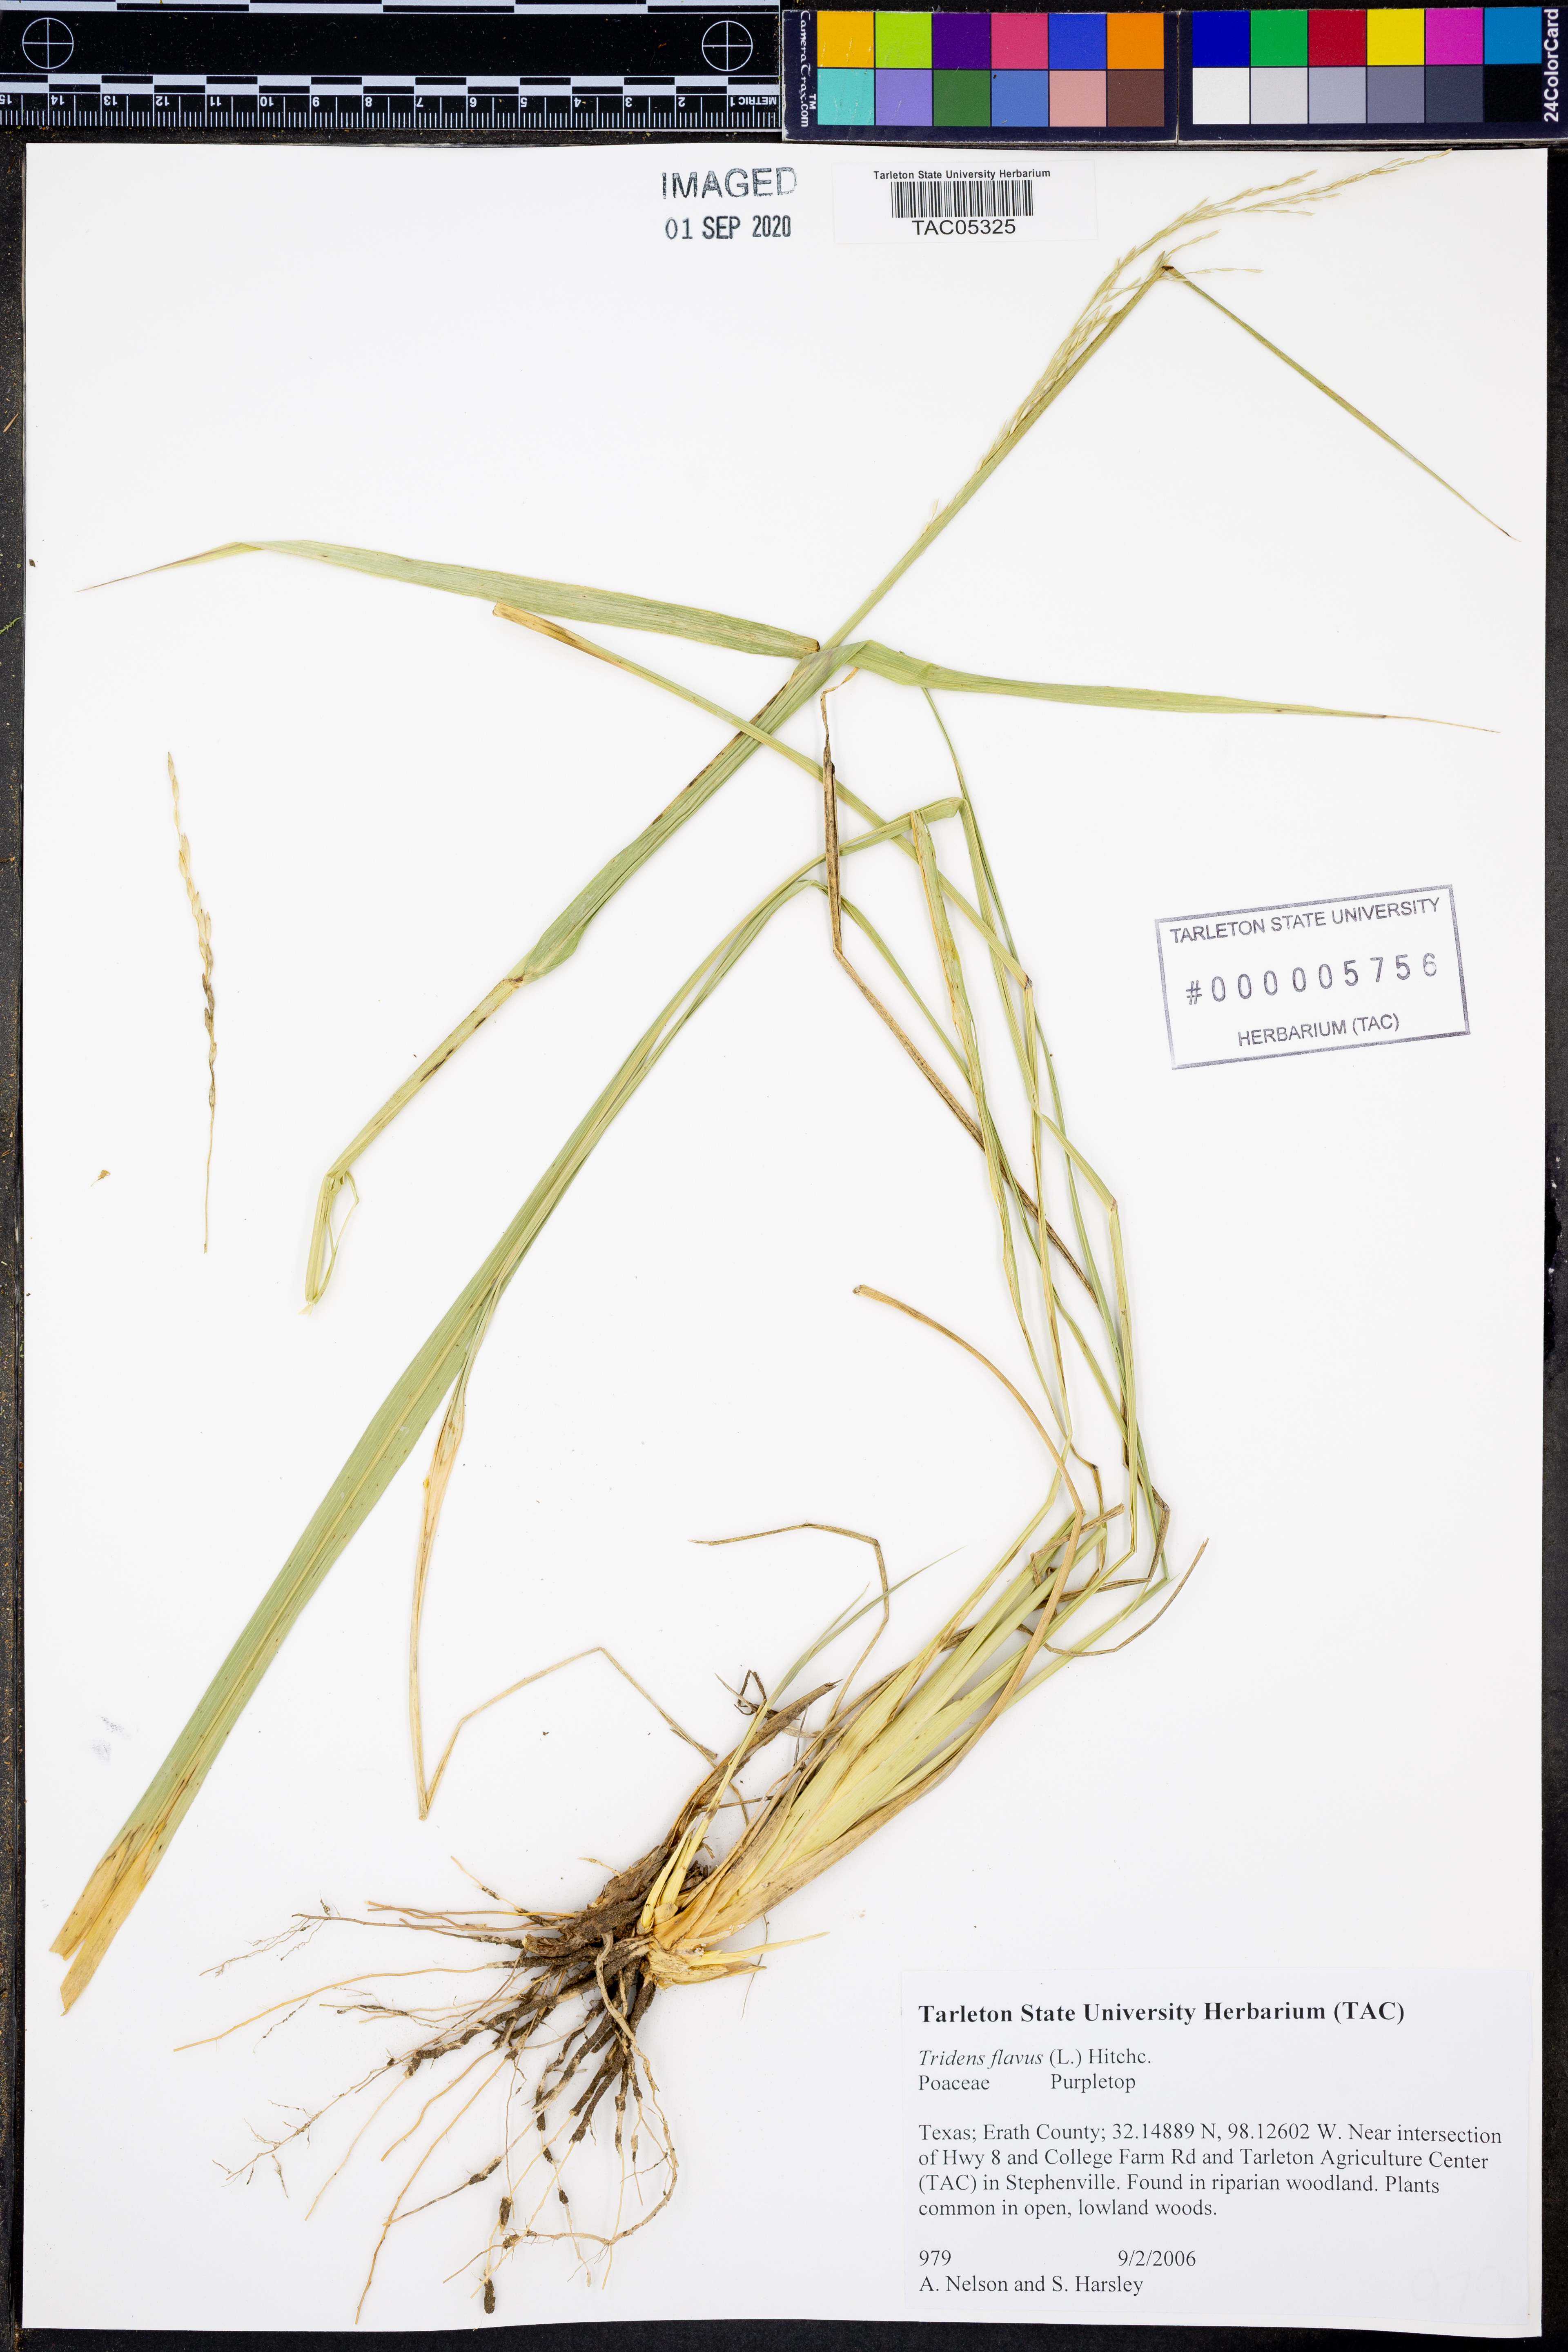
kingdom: Plantae
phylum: Tracheophyta
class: Liliopsida
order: Poales
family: Poaceae
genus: Tridens
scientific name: Tridens flavus
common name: Purpletop
